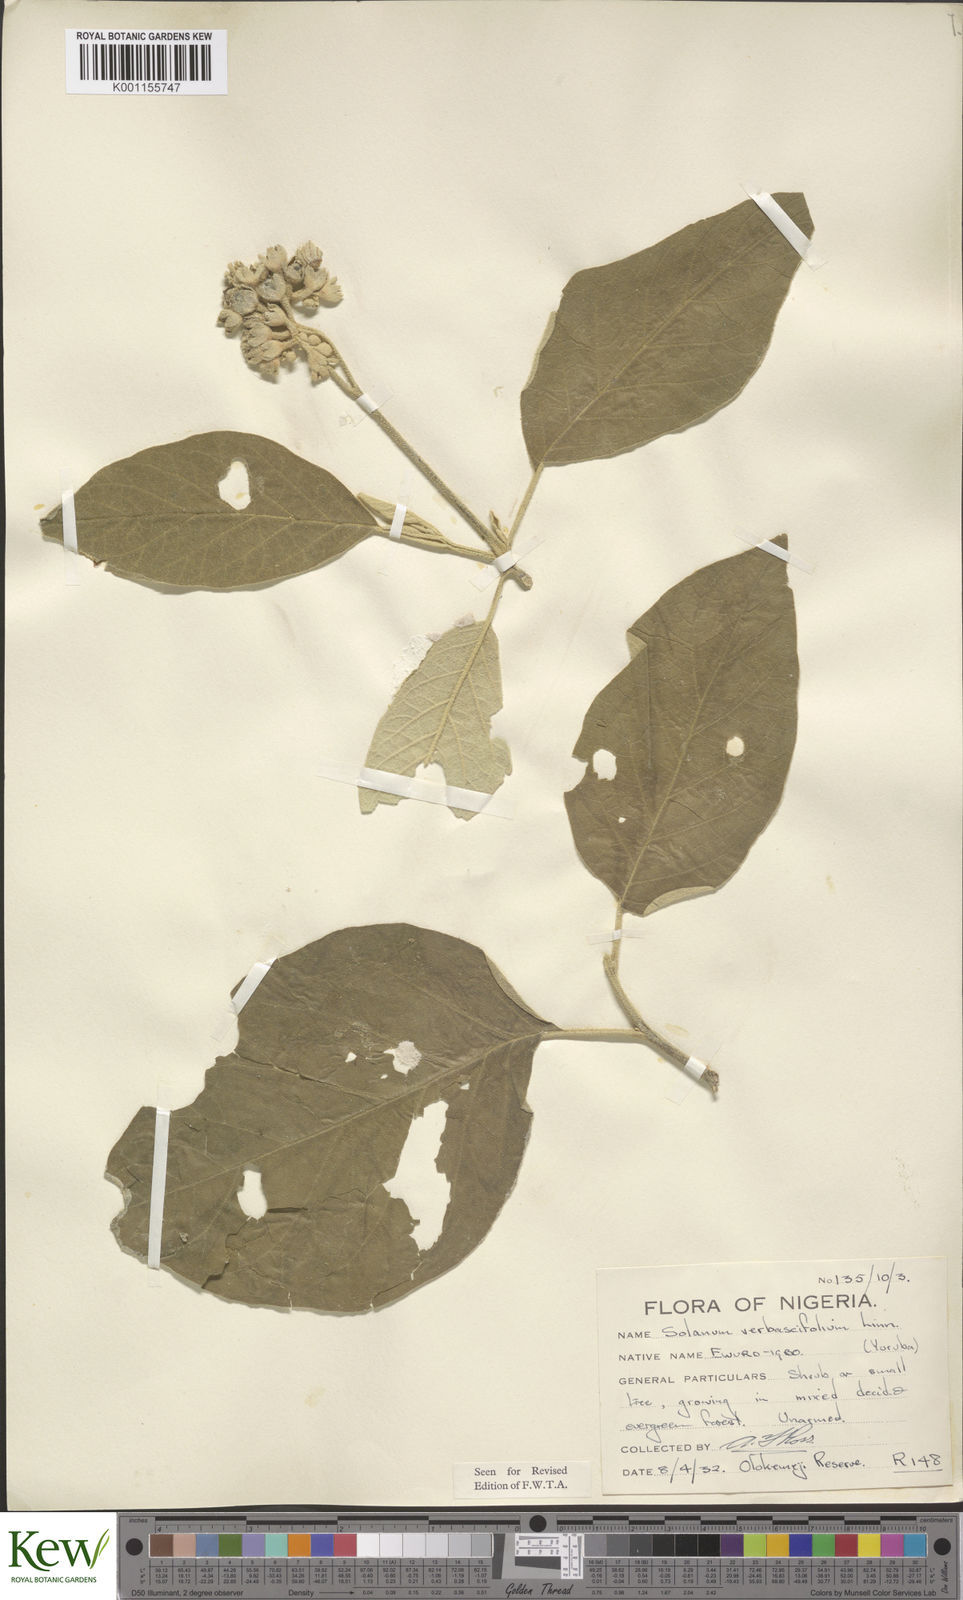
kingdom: Plantae
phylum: Tracheophyta
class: Magnoliopsida
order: Solanales
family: Solanaceae
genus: Solanum
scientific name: Solanum erianthum
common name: Tobacco-tree
